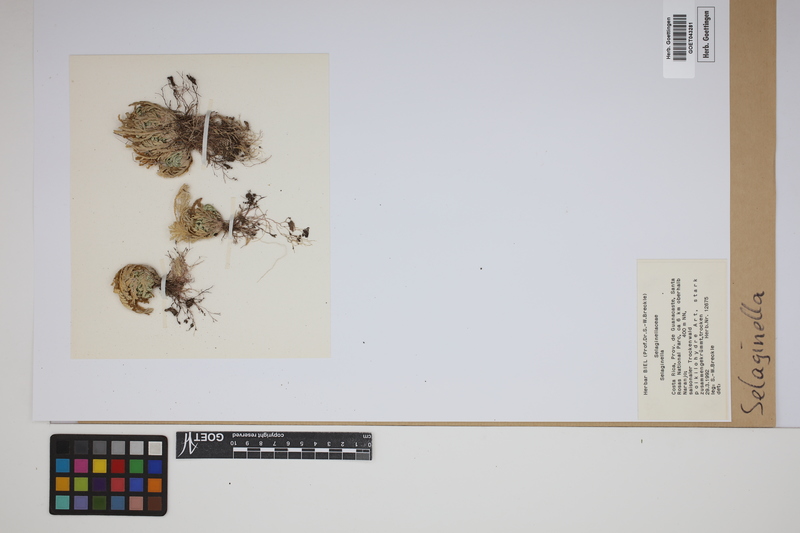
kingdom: Plantae
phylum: Tracheophyta
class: Lycopodiopsida
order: Selaginellales
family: Selaginellaceae
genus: Selaginella
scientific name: Selaginella
